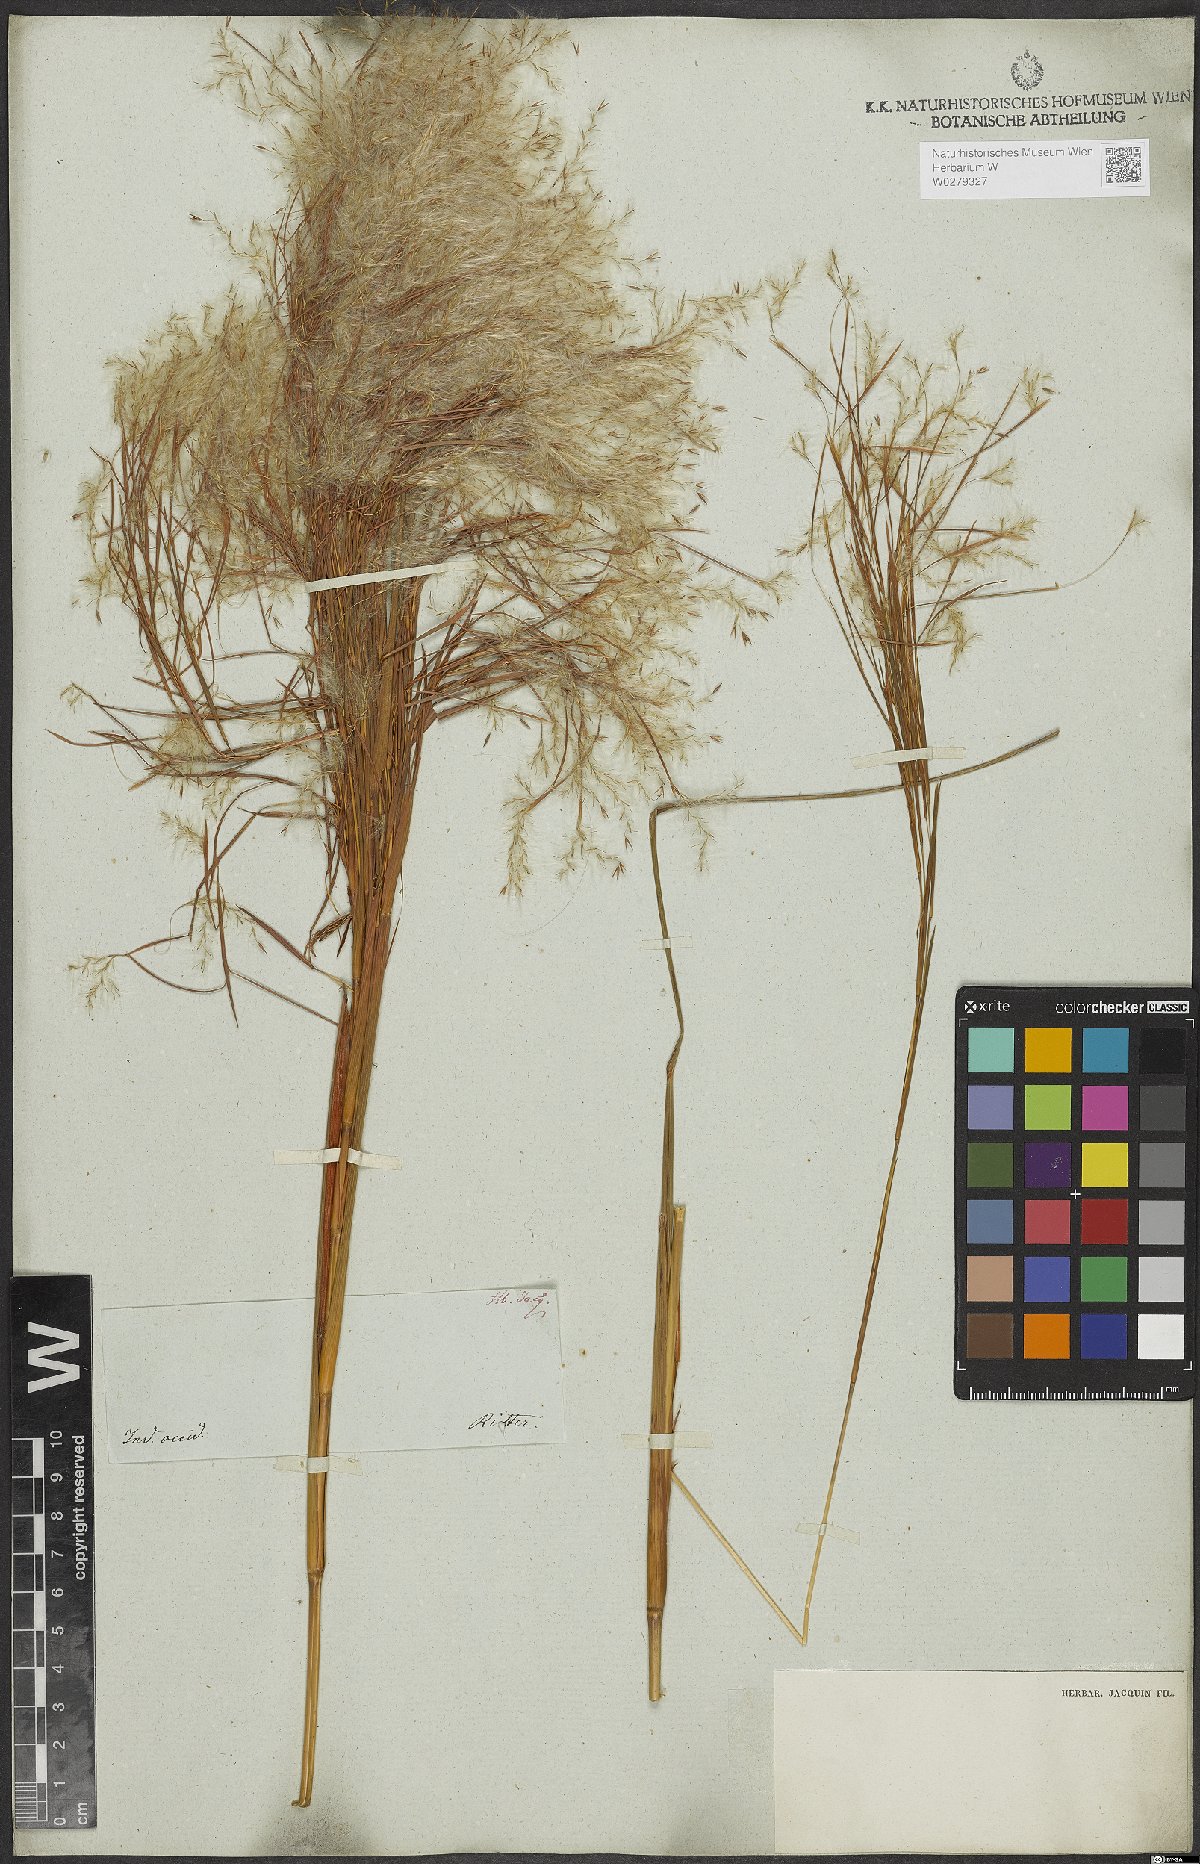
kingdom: Plantae
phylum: Tracheophyta
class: Liliopsida
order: Poales
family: Poaceae
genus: Andropogon
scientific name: Andropogon bicornis
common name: West indian foxtail grass
